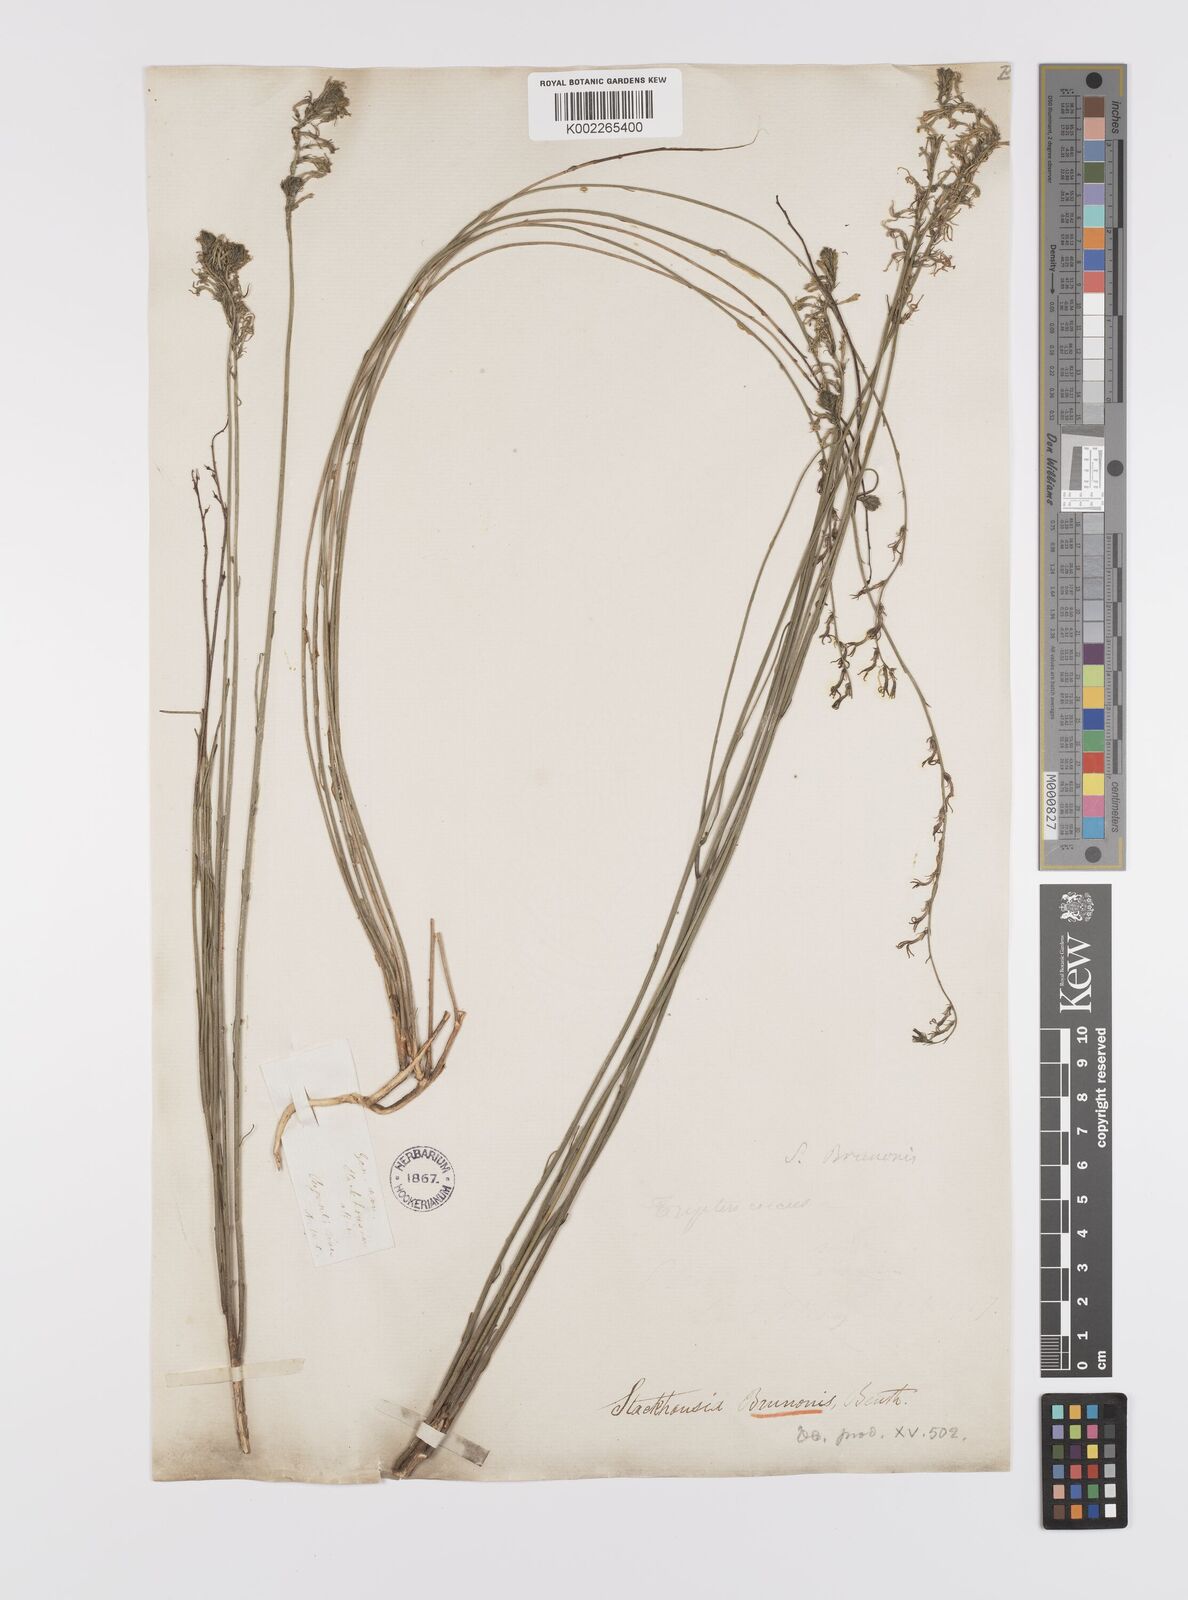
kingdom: Plantae
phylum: Tracheophyta
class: Magnoliopsida
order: Celastrales
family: Celastraceae
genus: Tripterococcus
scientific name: Tripterococcus brunonis
